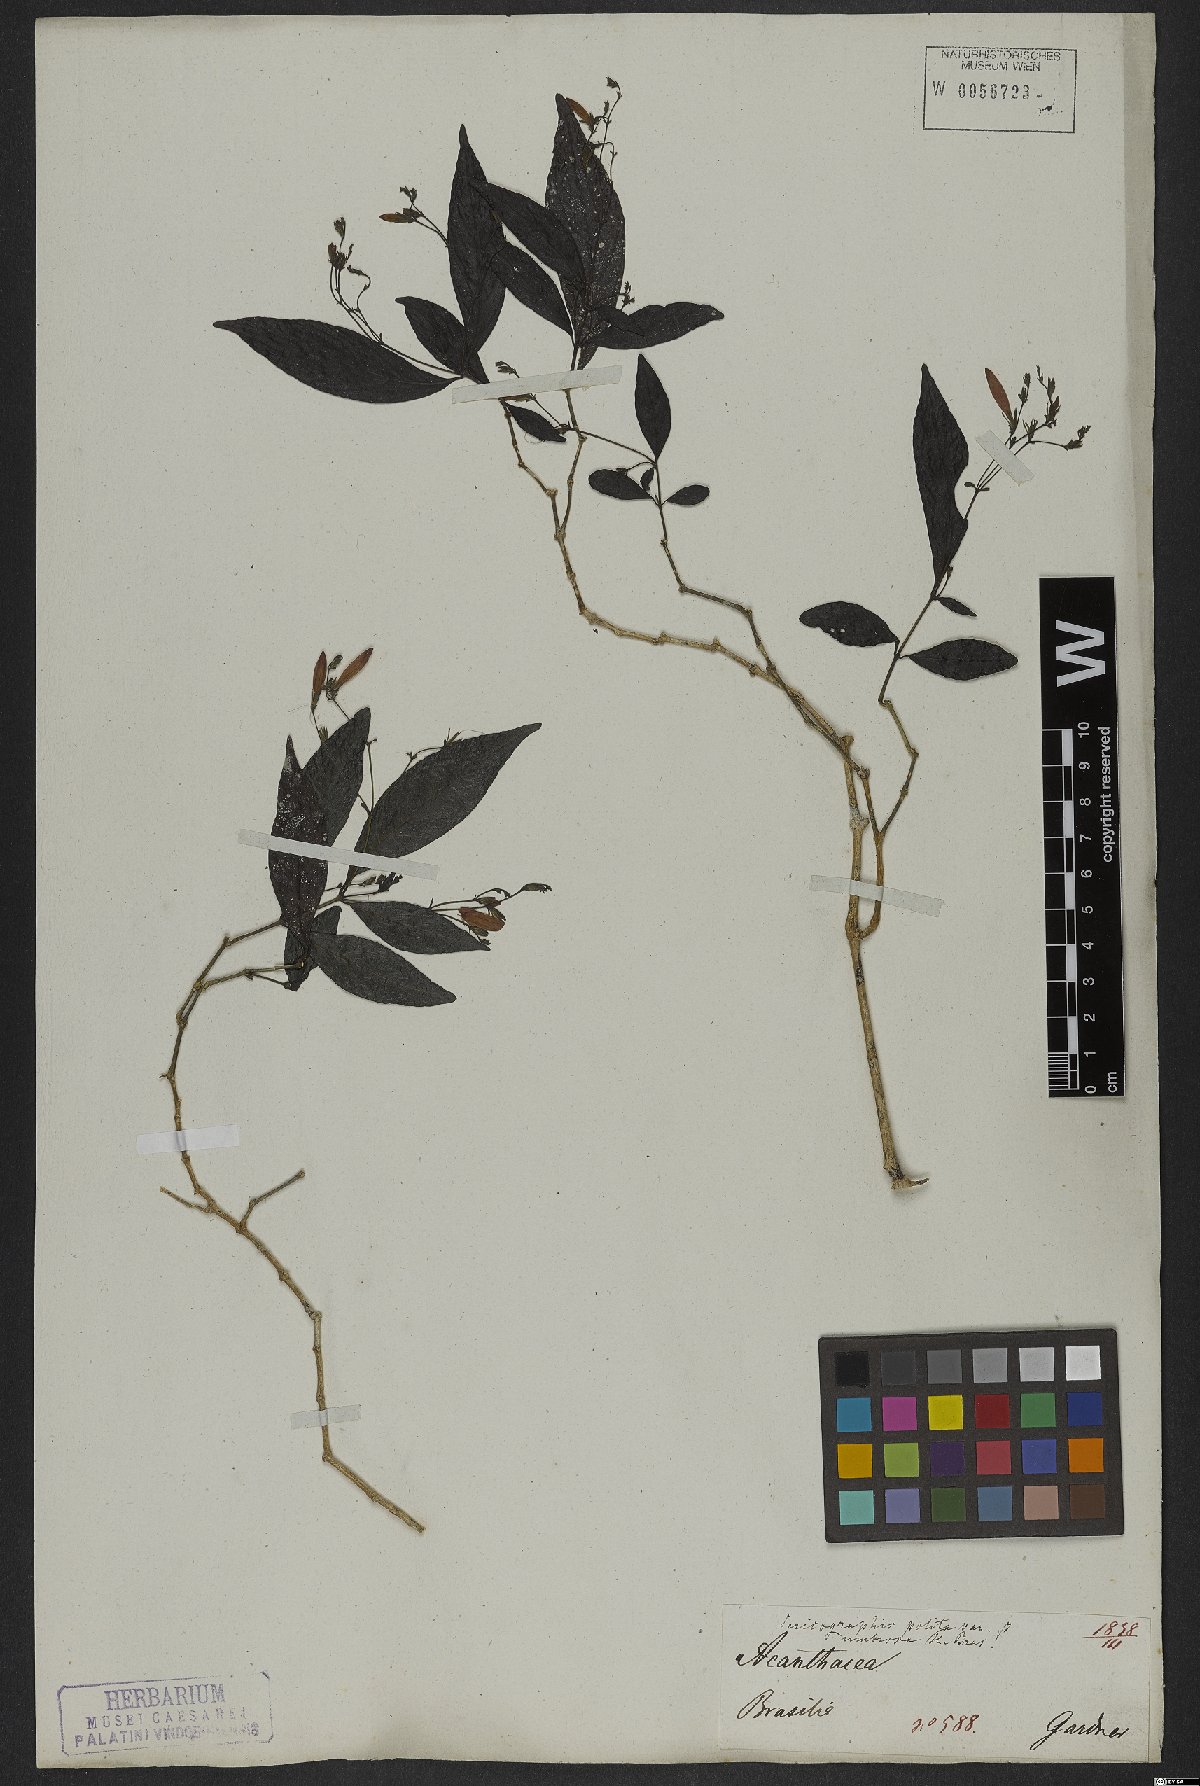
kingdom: Plantae
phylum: Tracheophyta
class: Magnoliopsida
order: Lamiales
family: Acanthaceae
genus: Justicia
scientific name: Justicia polita
